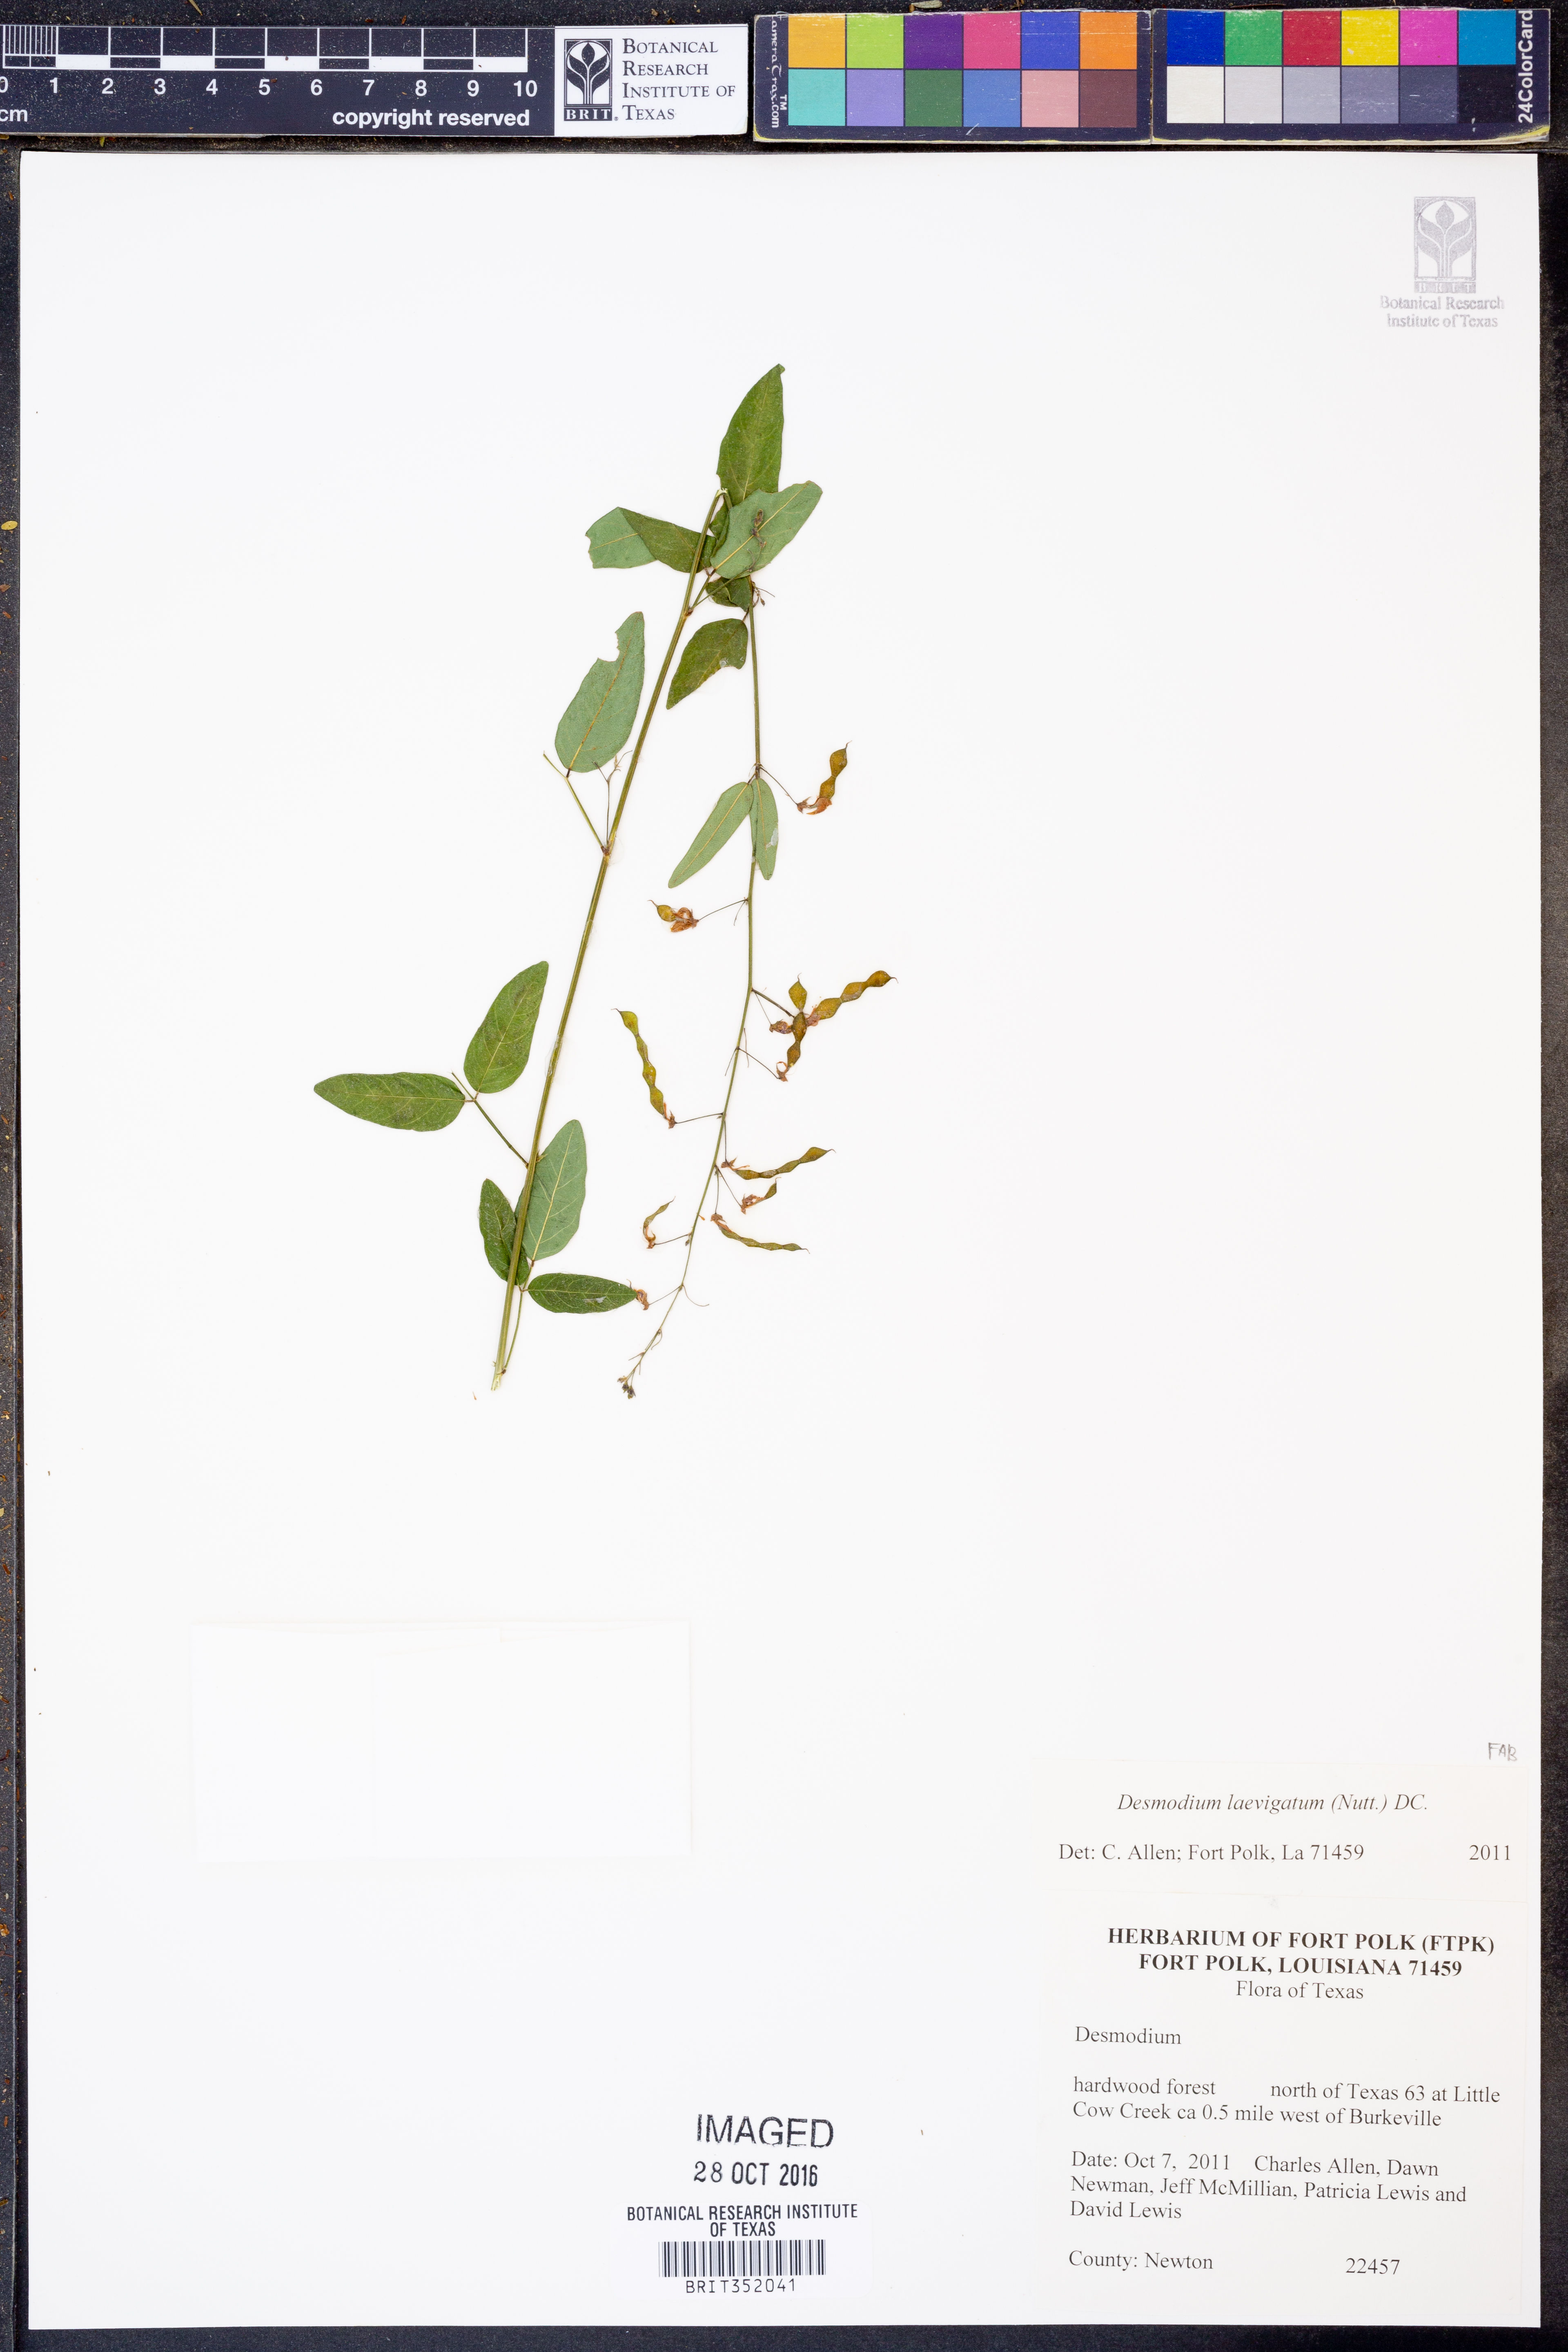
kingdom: Plantae
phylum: Tracheophyta
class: Magnoliopsida
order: Fabales
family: Fabaceae
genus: Desmodium
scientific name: Desmodium laevigatum
